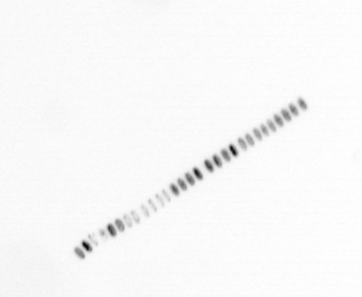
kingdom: Chromista
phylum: Ochrophyta
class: Bacillariophyceae
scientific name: Bacillariophyceae
